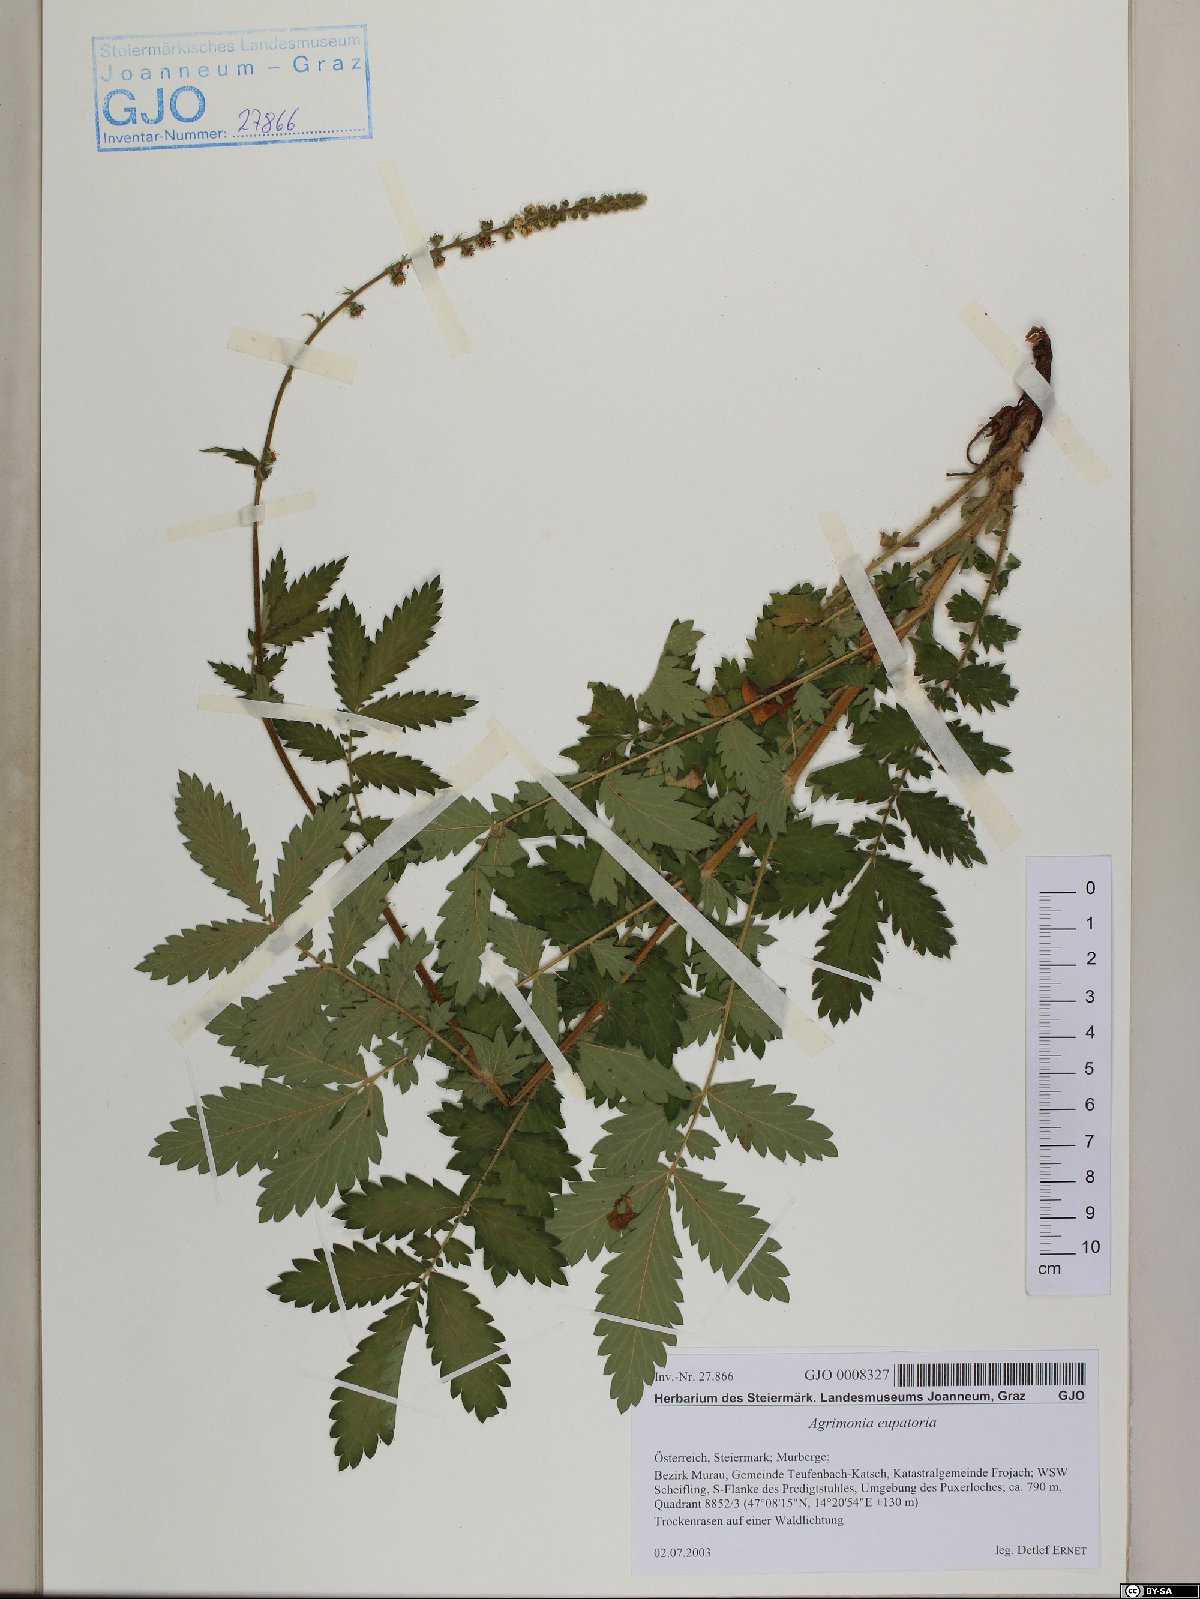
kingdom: Plantae
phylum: Tracheophyta
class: Magnoliopsida
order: Rosales
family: Rosaceae
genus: Agrimonia
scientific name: Agrimonia eupatoria
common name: Agrimony
